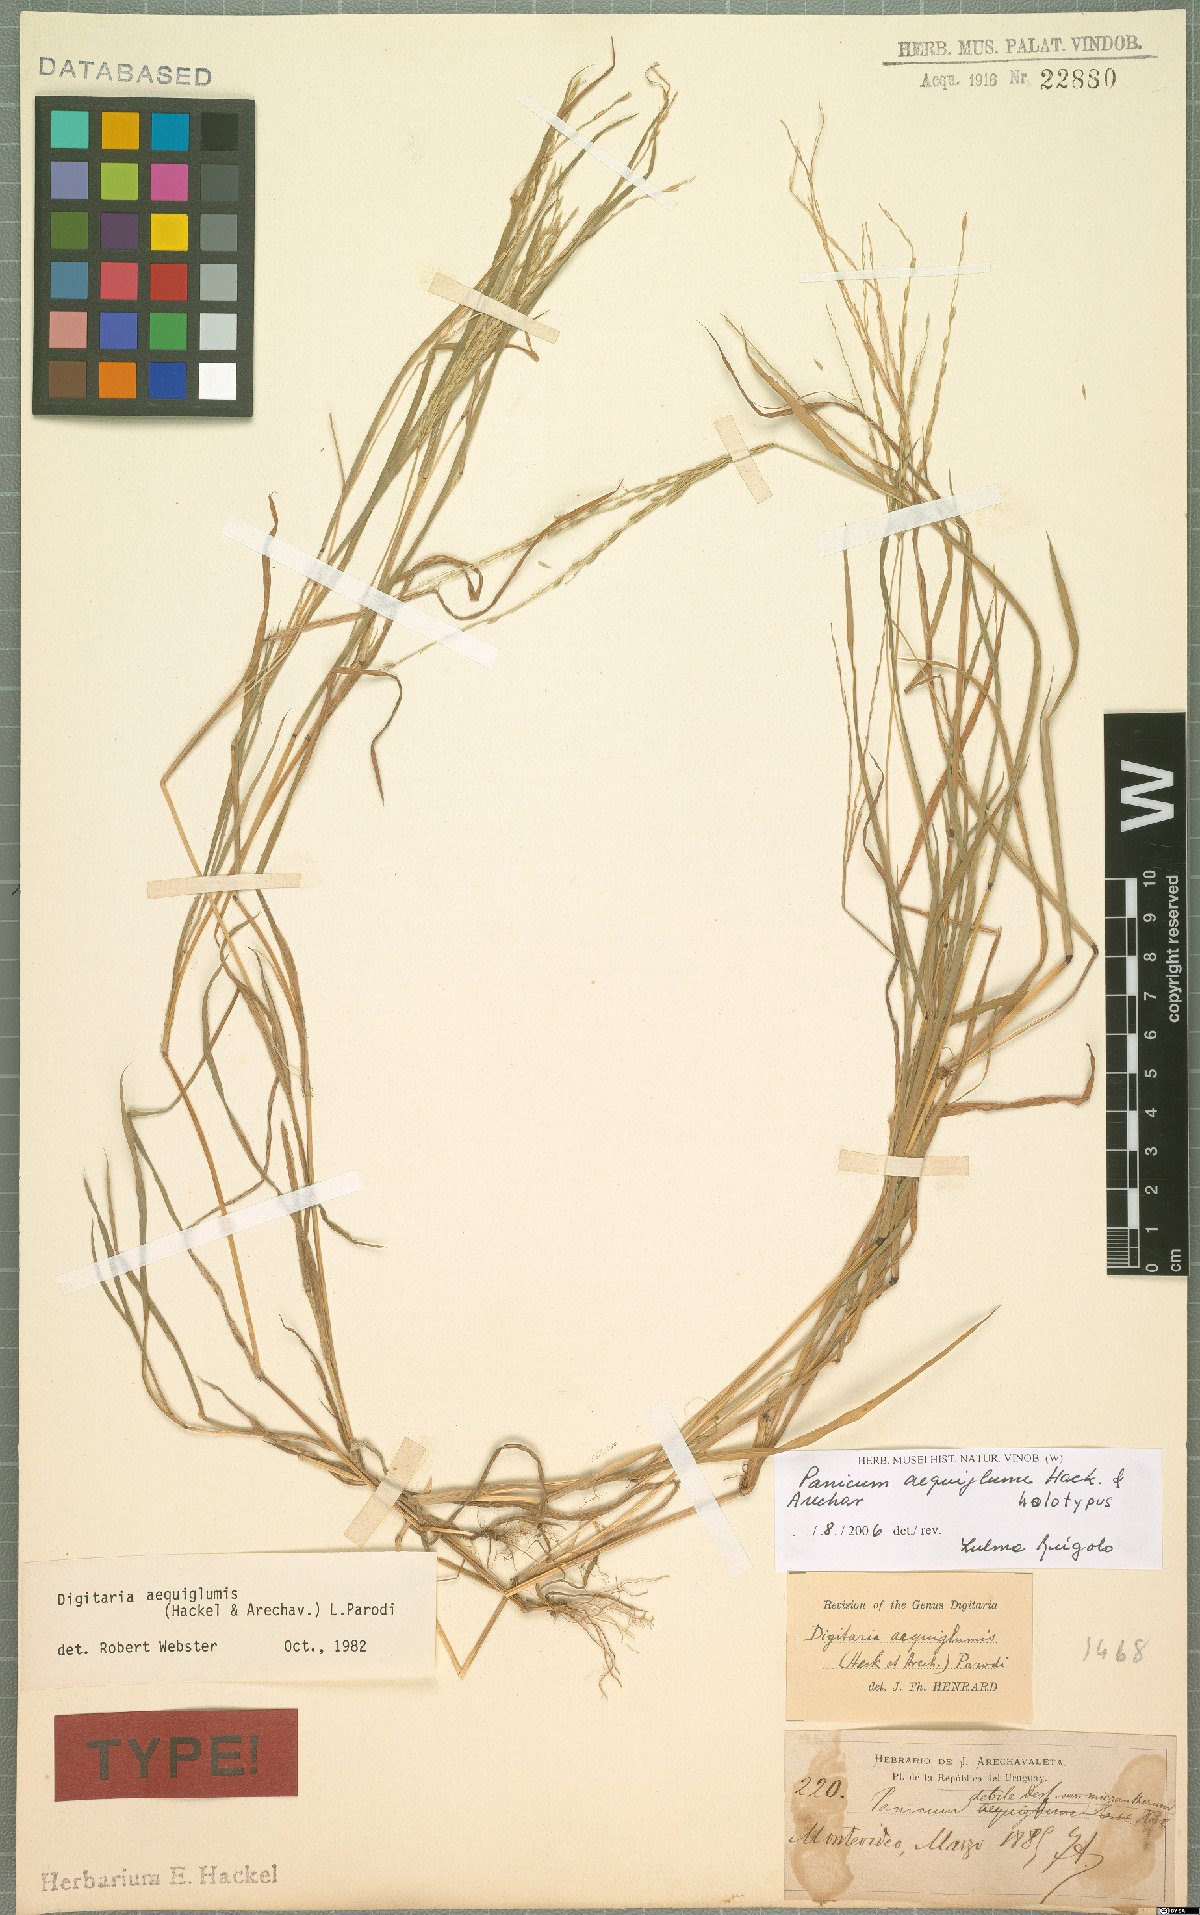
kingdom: Plantae
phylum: Tracheophyta
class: Liliopsida
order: Poales
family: Poaceae
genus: Digitaria
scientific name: Digitaria aequiglumis
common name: Argentinian crabgrass
